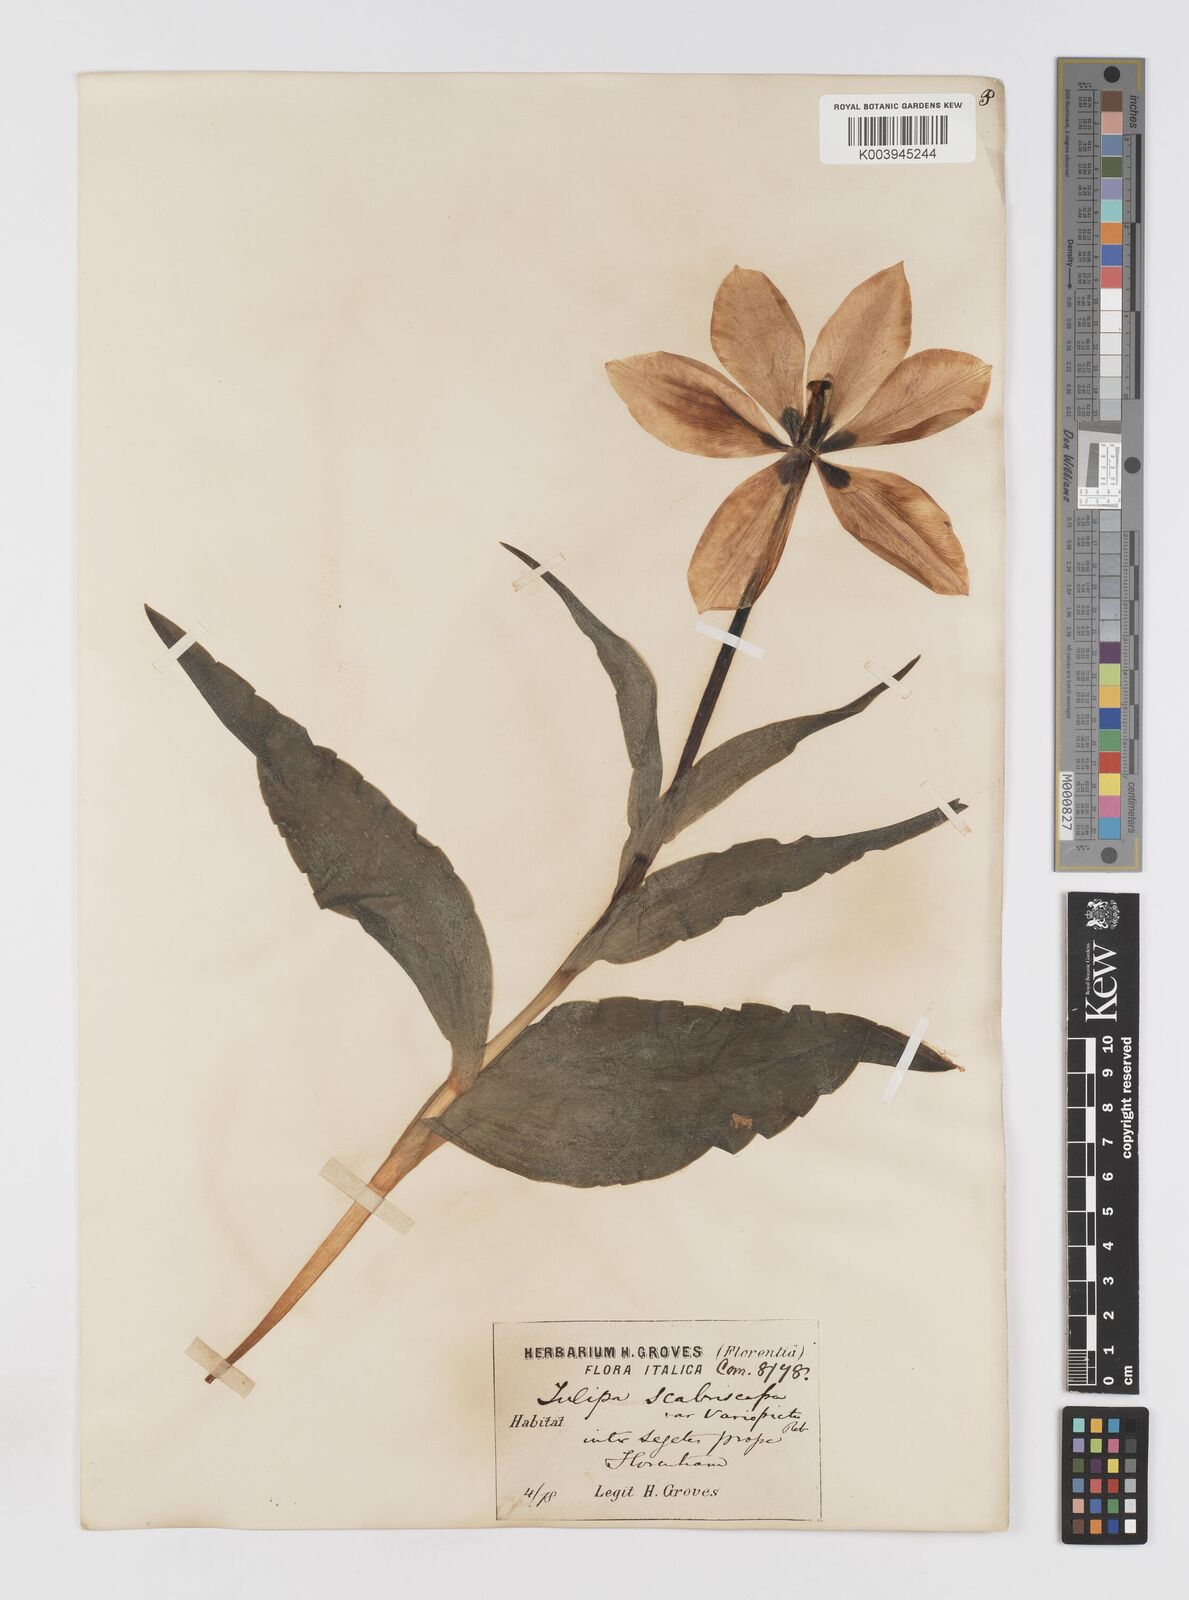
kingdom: Plantae
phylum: Tracheophyta
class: Liliopsida
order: Liliales
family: Liliaceae
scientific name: Liliaceae
